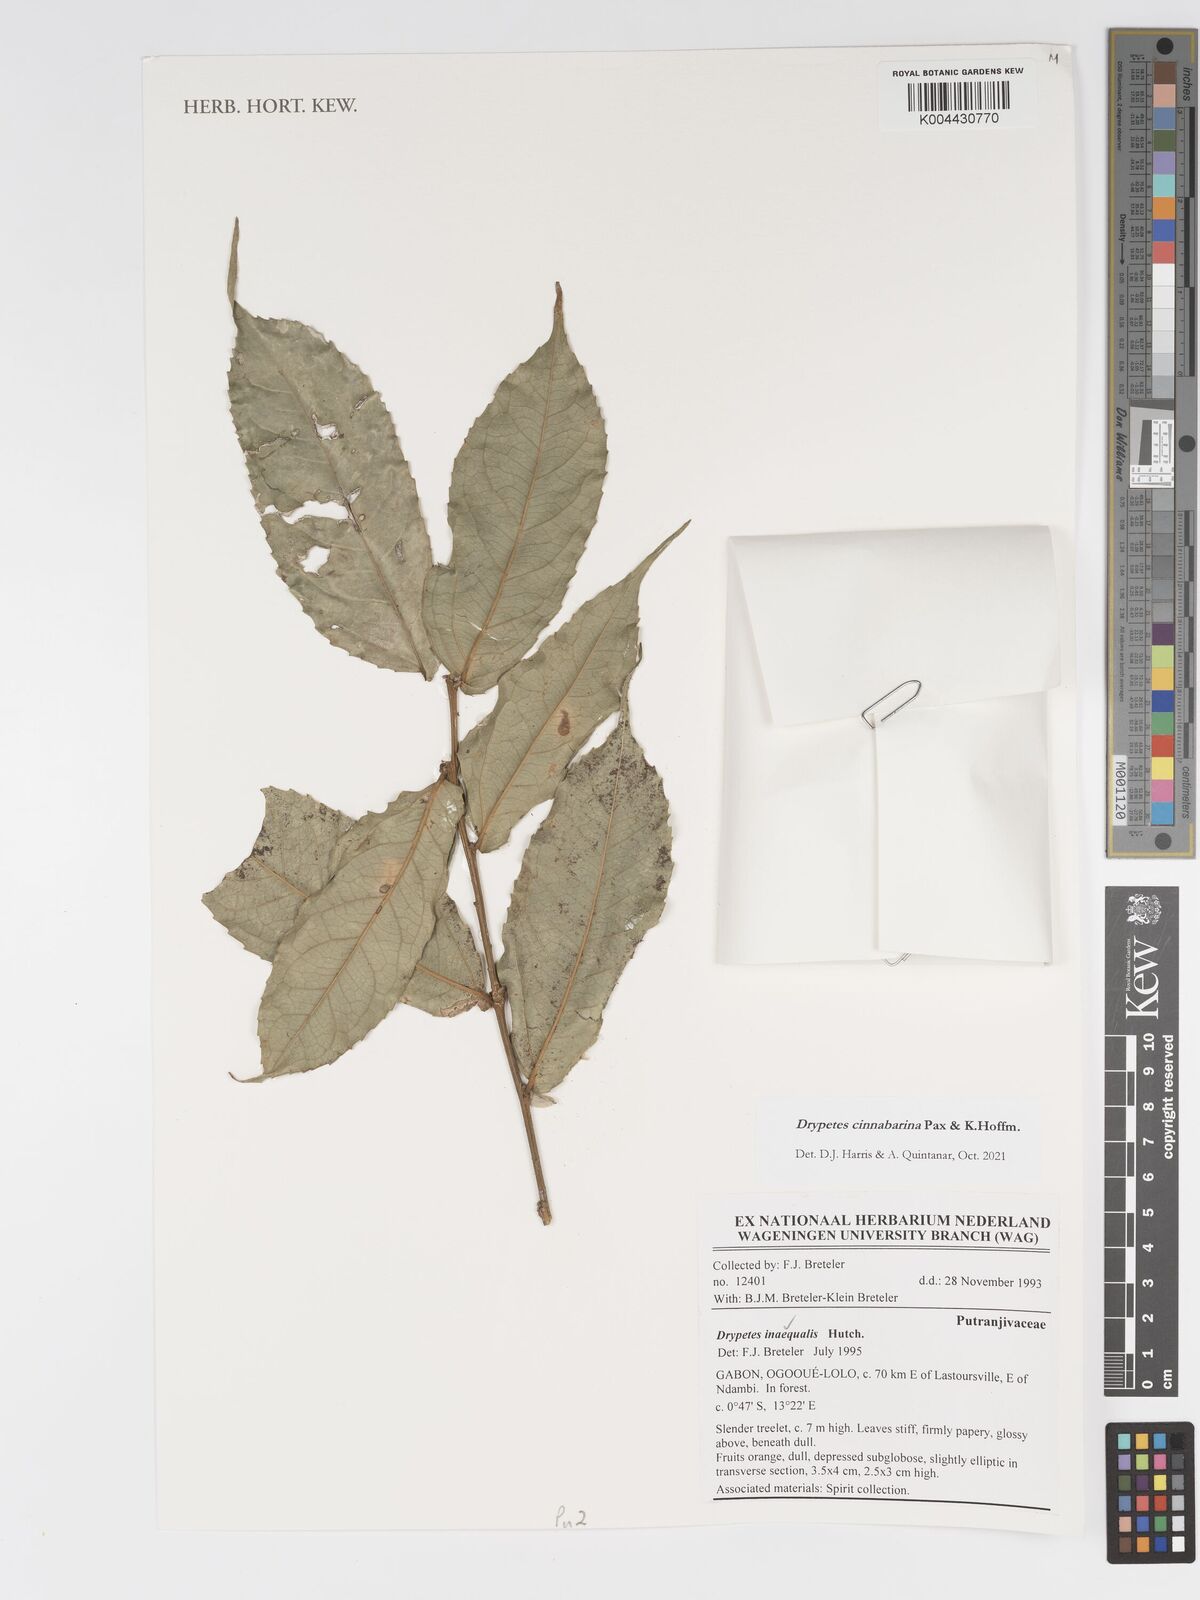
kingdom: Plantae
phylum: Tracheophyta
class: Magnoliopsida
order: Malpighiales
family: Putranjivaceae
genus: Drypetes
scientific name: Drypetes cinnabarina
